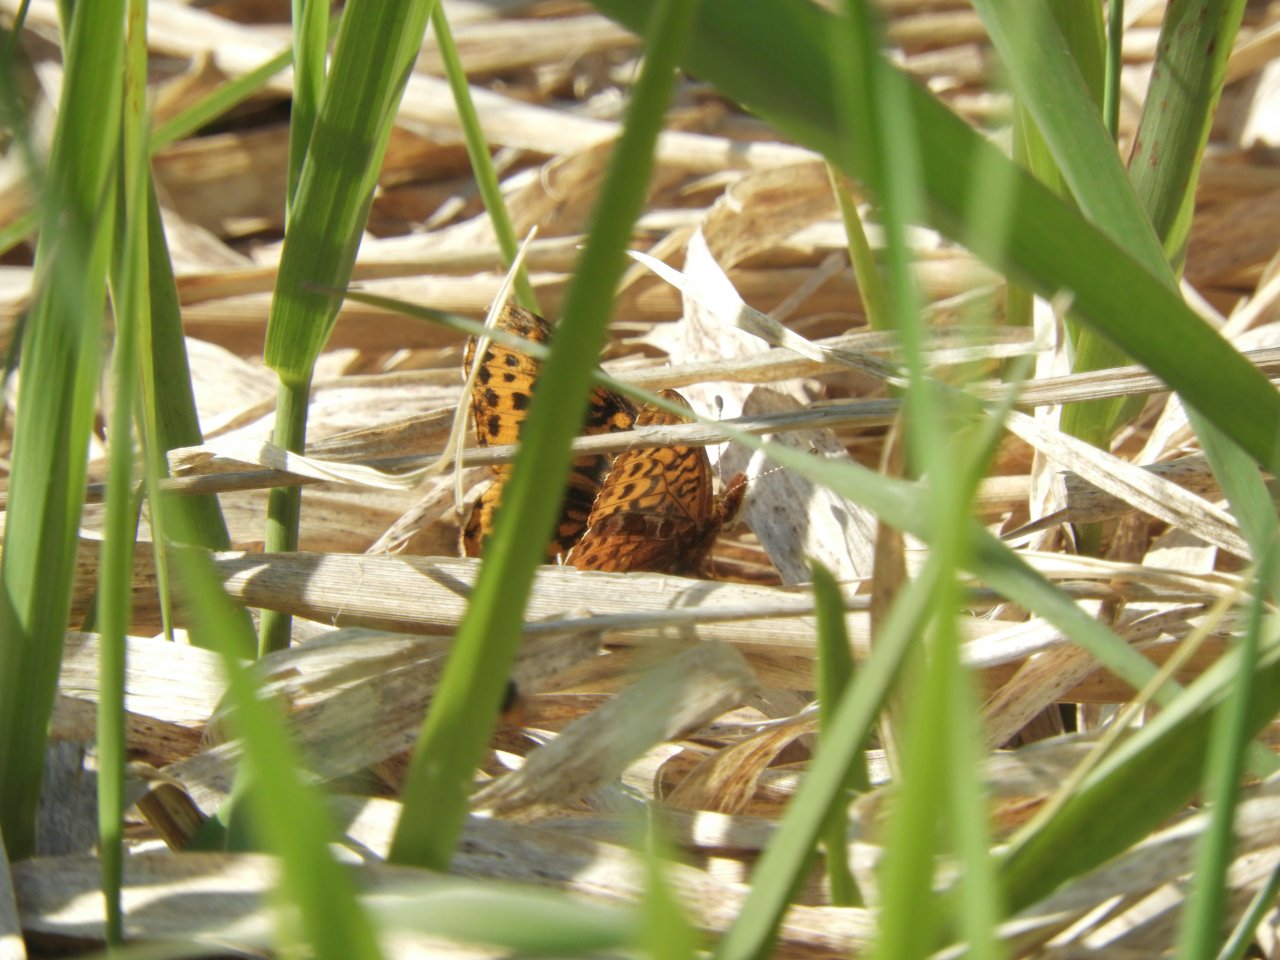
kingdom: Animalia
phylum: Arthropoda
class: Insecta
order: Lepidoptera
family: Nymphalidae
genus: Clossiana
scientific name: Clossiana toddi
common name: Meadow Fritillary
